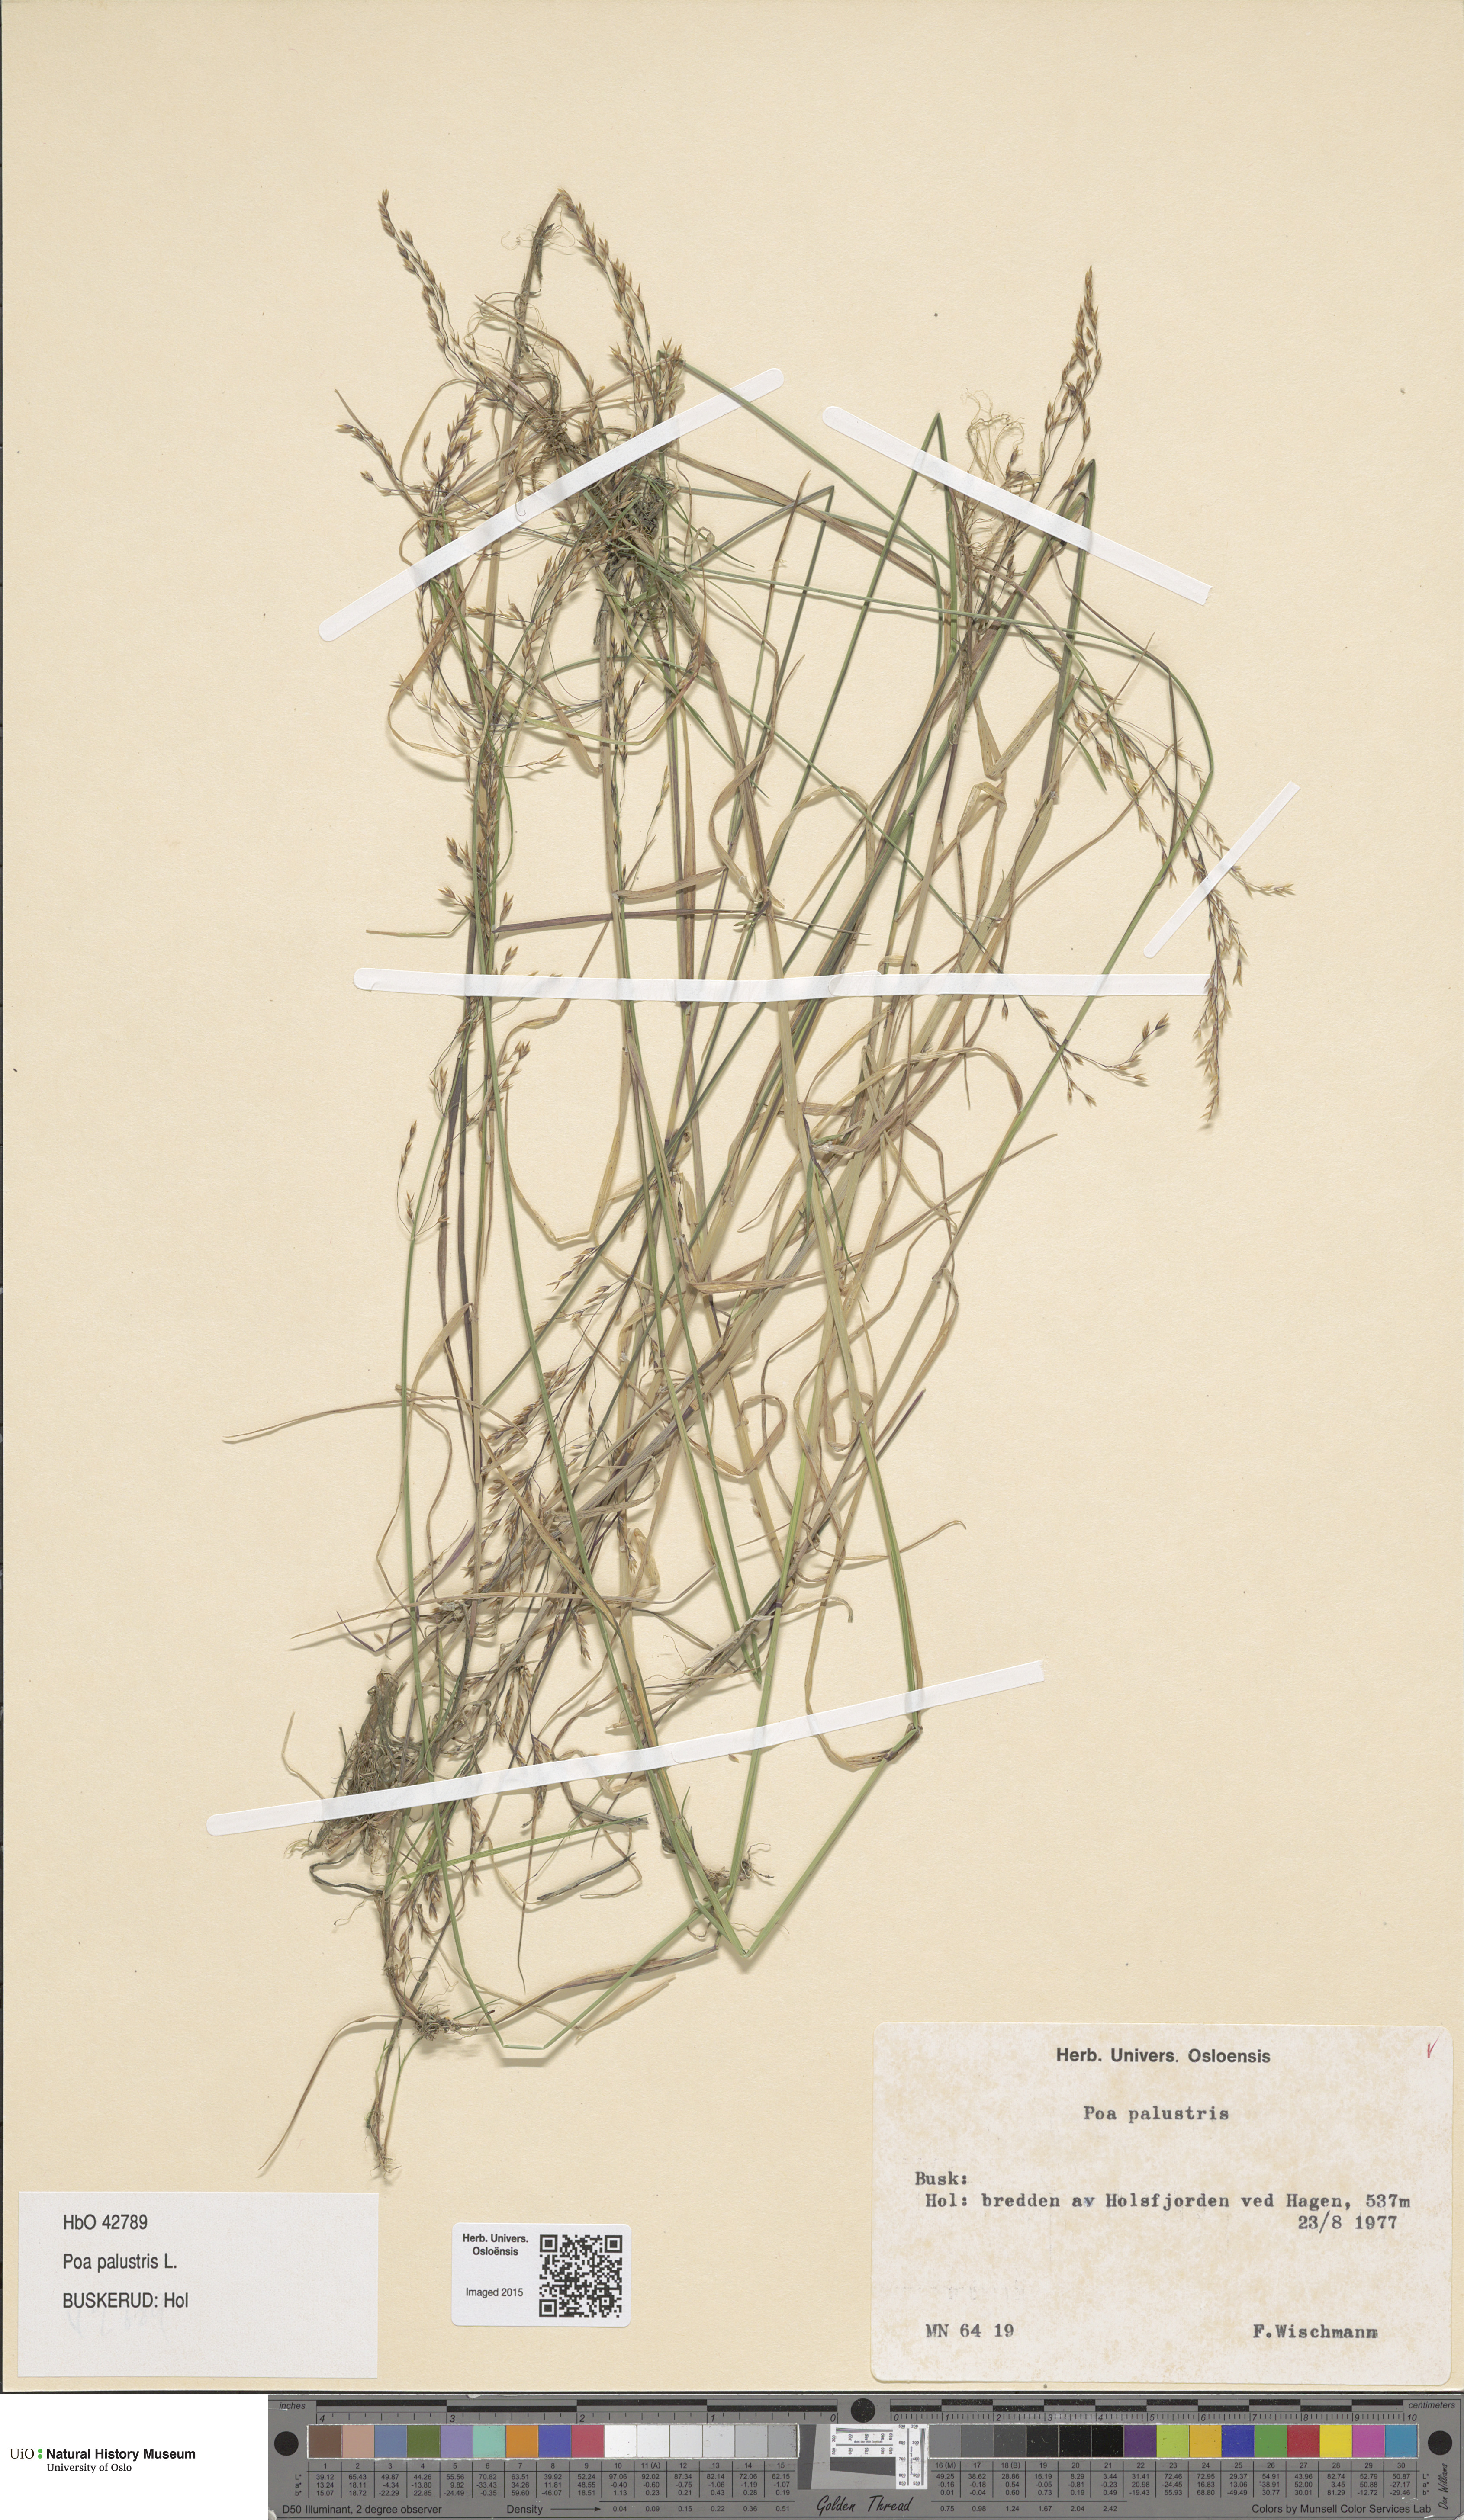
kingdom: Plantae
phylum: Tracheophyta
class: Liliopsida
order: Poales
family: Poaceae
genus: Poa
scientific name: Poa palustris
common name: Swamp meadow-grass
